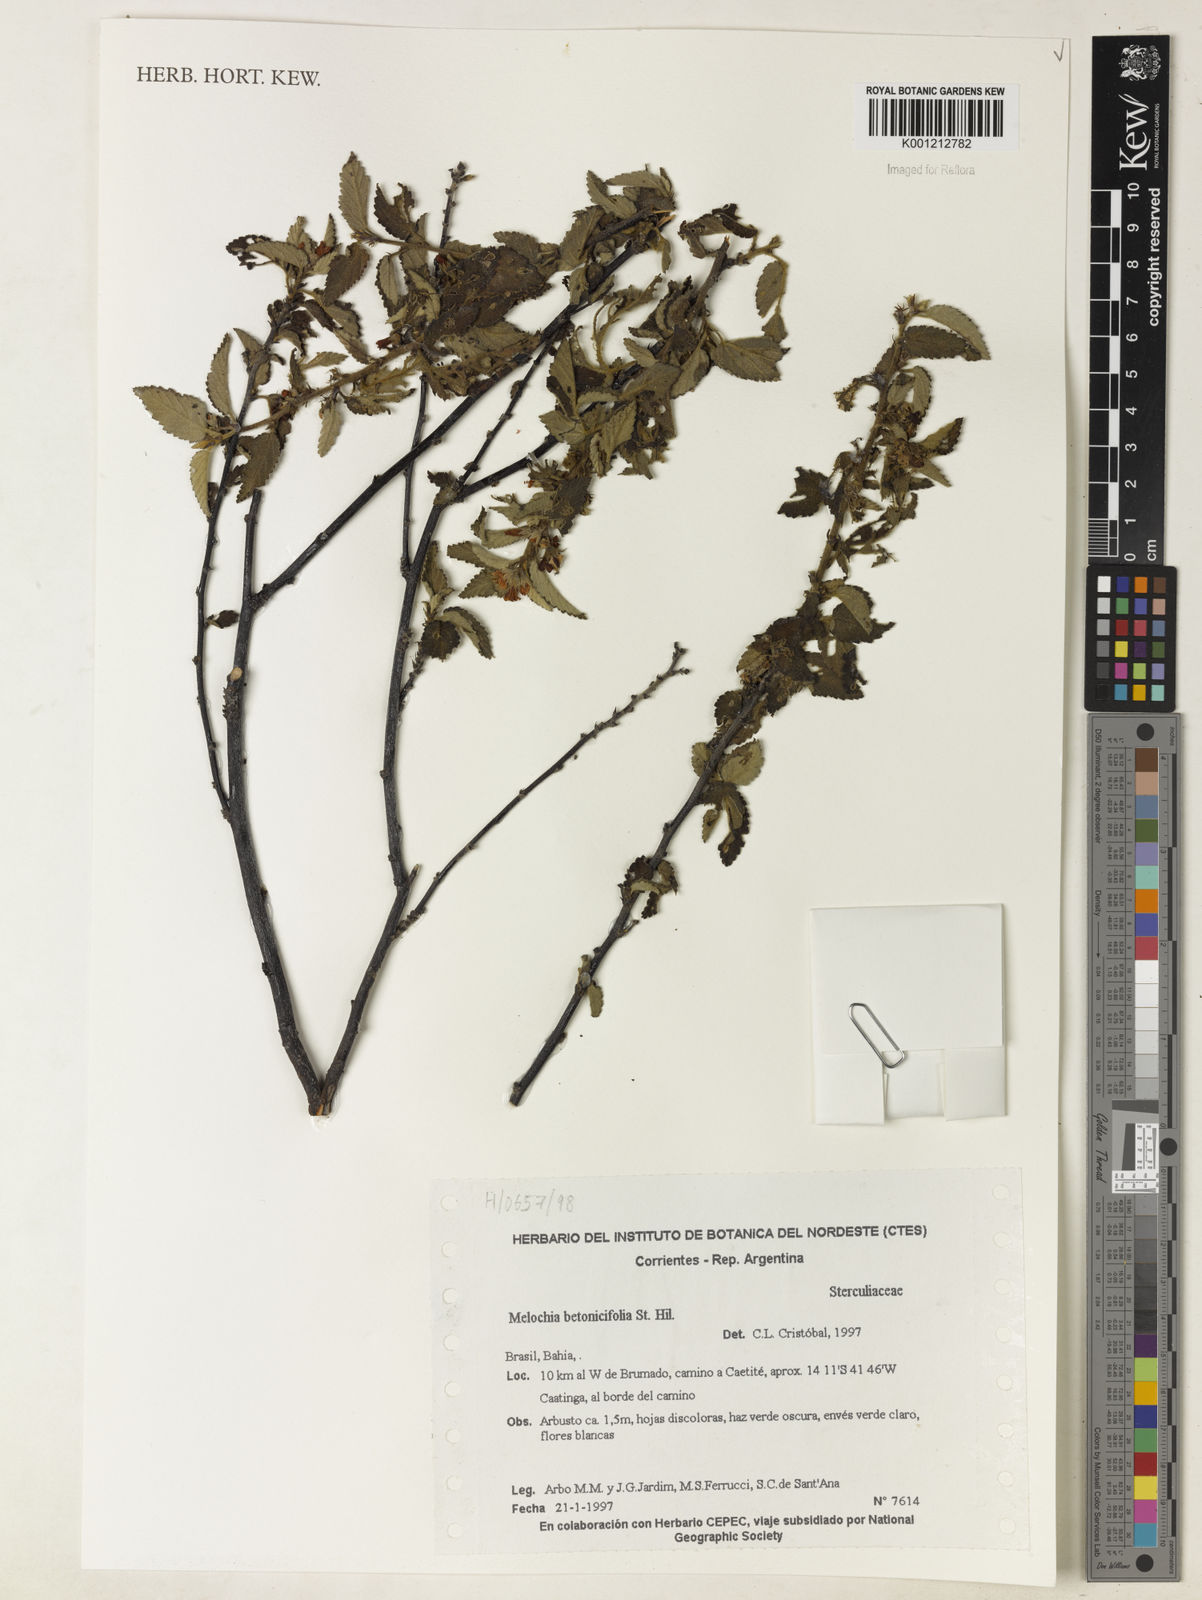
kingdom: Plantae
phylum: Tracheophyta
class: Magnoliopsida
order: Malvales
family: Malvaceae
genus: Melochia
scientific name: Melochia betonicifolia
